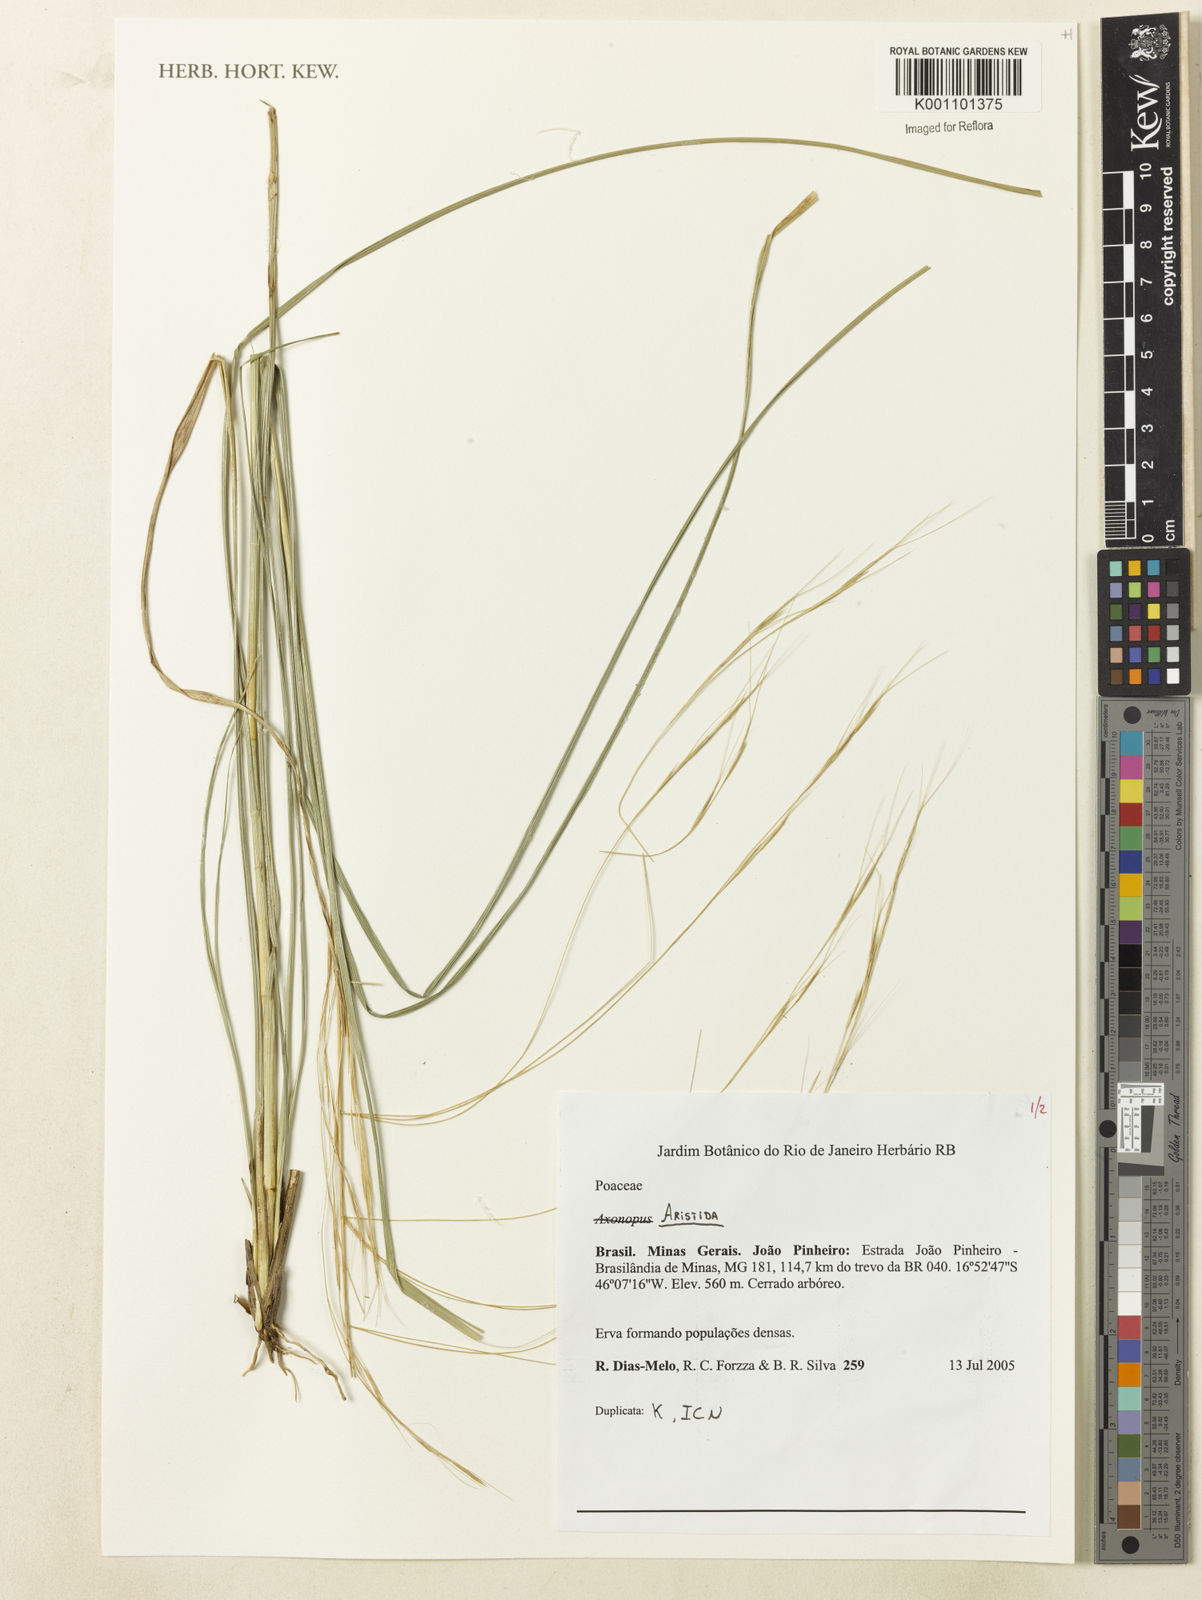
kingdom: Plantae
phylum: Tracheophyta
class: Liliopsida
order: Poales
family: Poaceae
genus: Aristida
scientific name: Aristida
